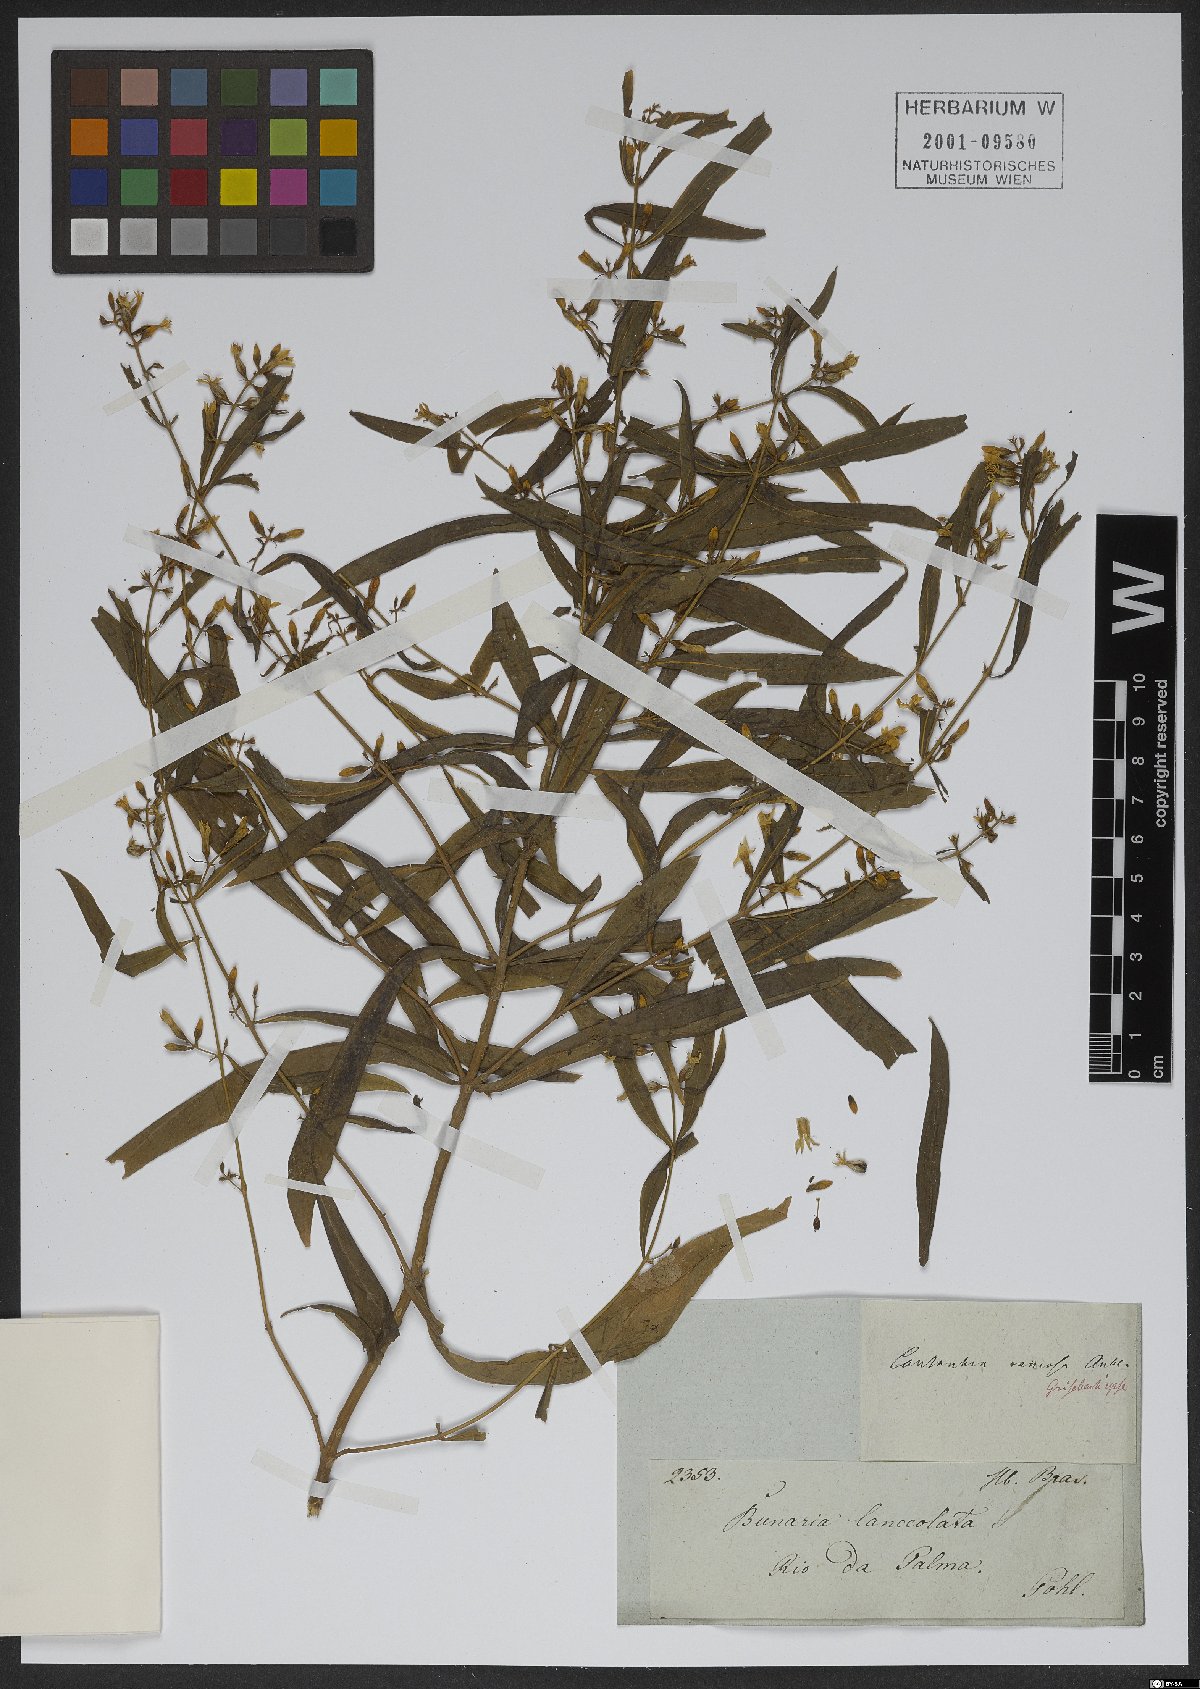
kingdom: Plantae
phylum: Tracheophyta
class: Magnoliopsida
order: Gentianales
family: Gentianaceae
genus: Coutoubea
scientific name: Coutoubea ramosa
